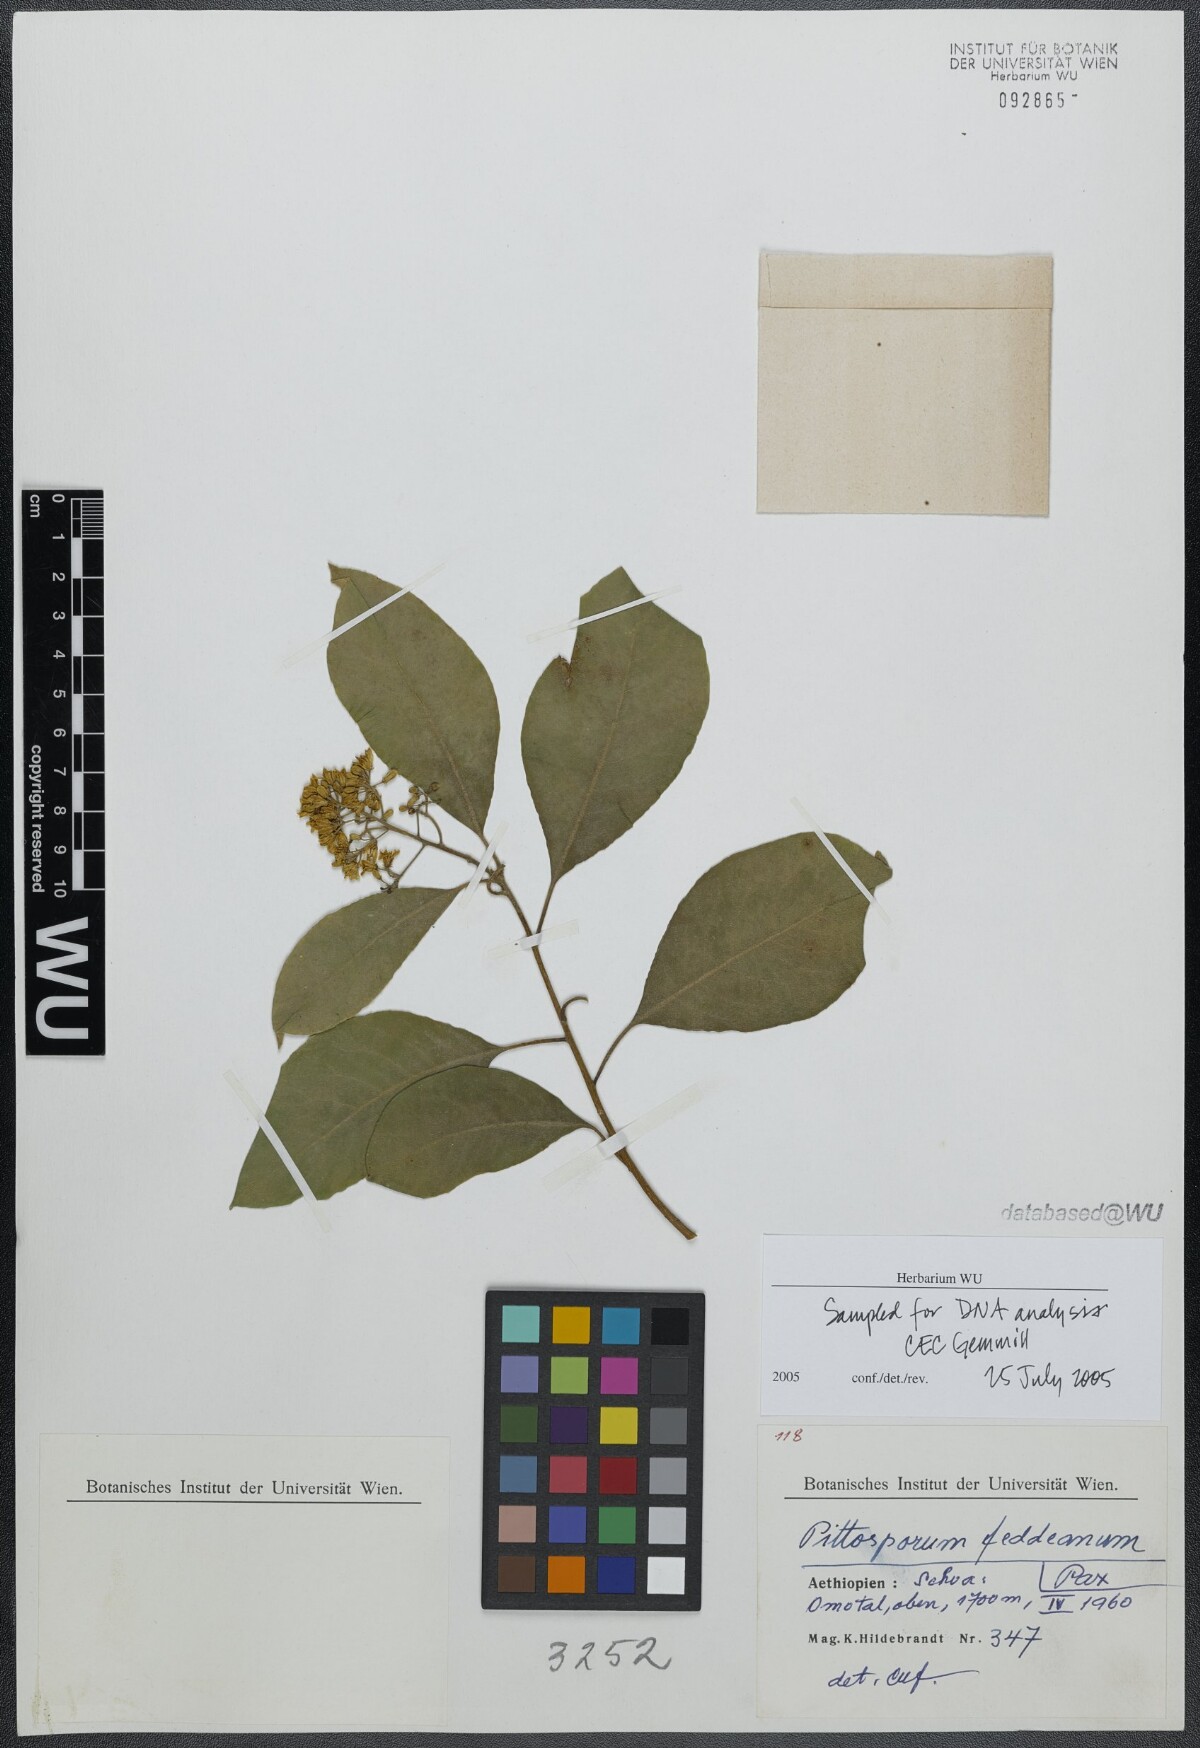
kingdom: Plantae
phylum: Tracheophyta
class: Magnoliopsida
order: Apiales
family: Pittosporaceae
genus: Pittosporum
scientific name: Pittosporum viridiflorum
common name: Cape cheesewood
